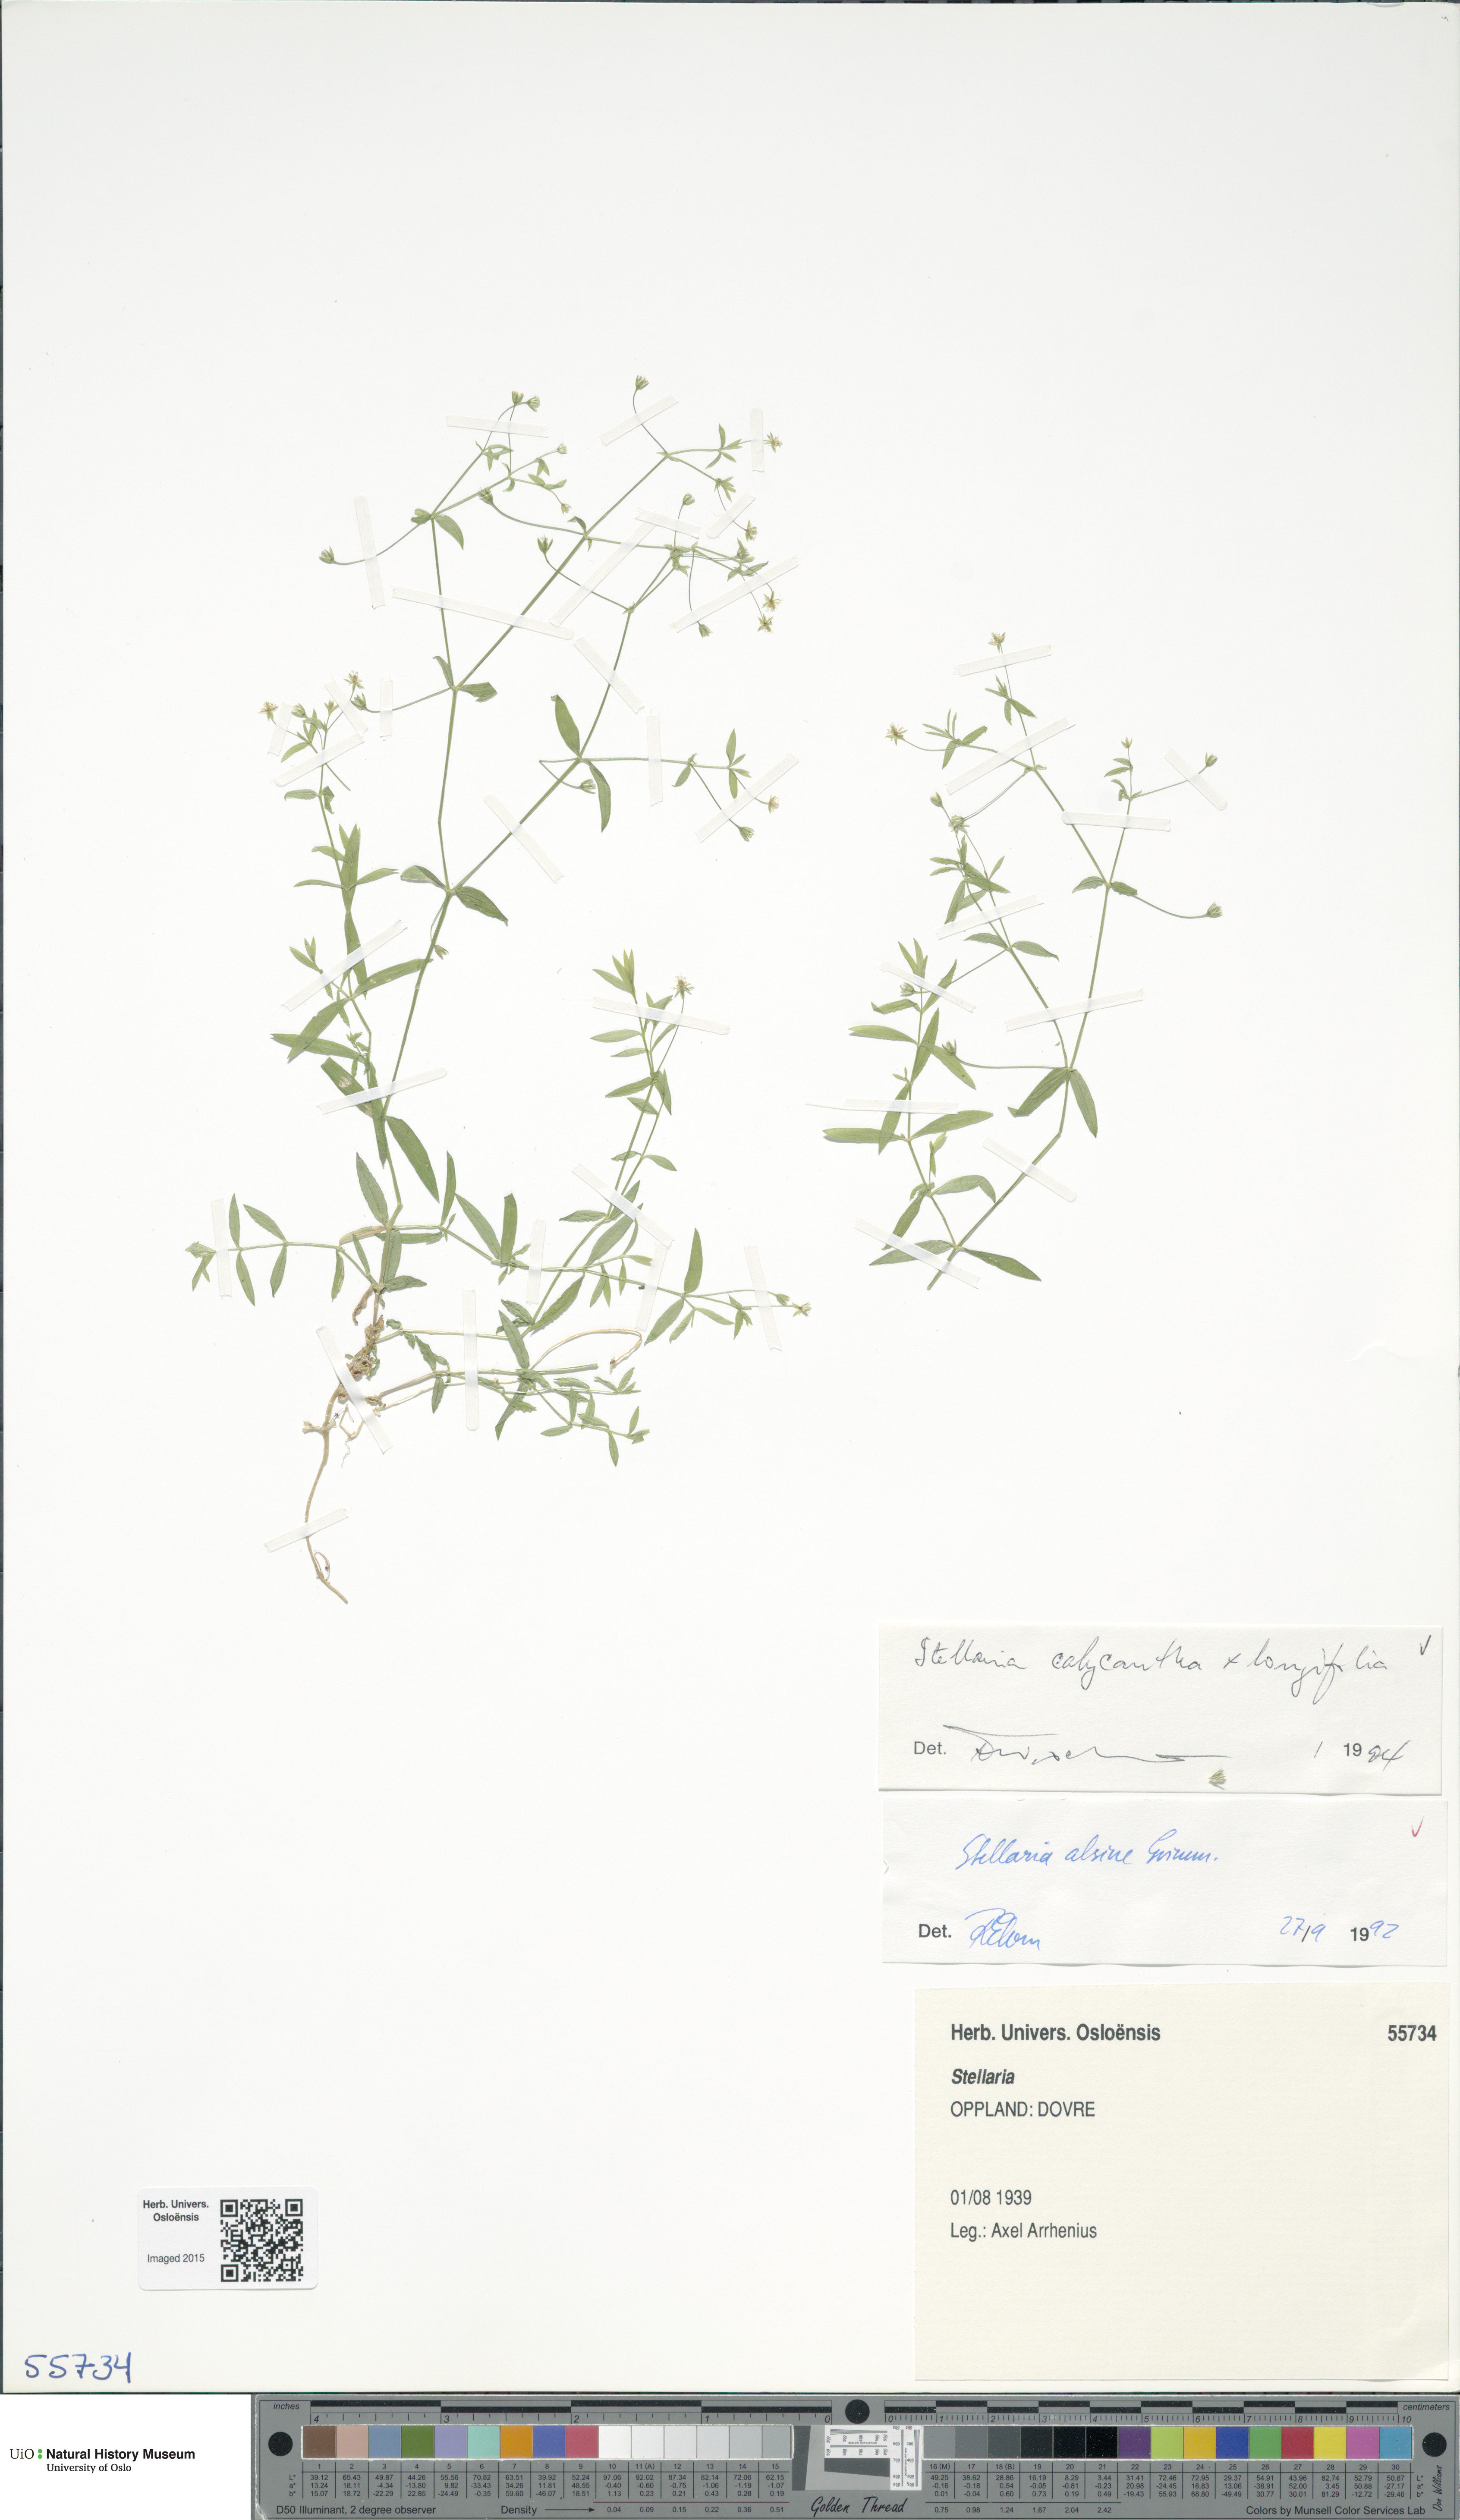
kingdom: Plantae
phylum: Tracheophyta
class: Magnoliopsida
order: Caryophyllales
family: Caryophyllaceae
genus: Stellaria
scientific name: Stellaria
